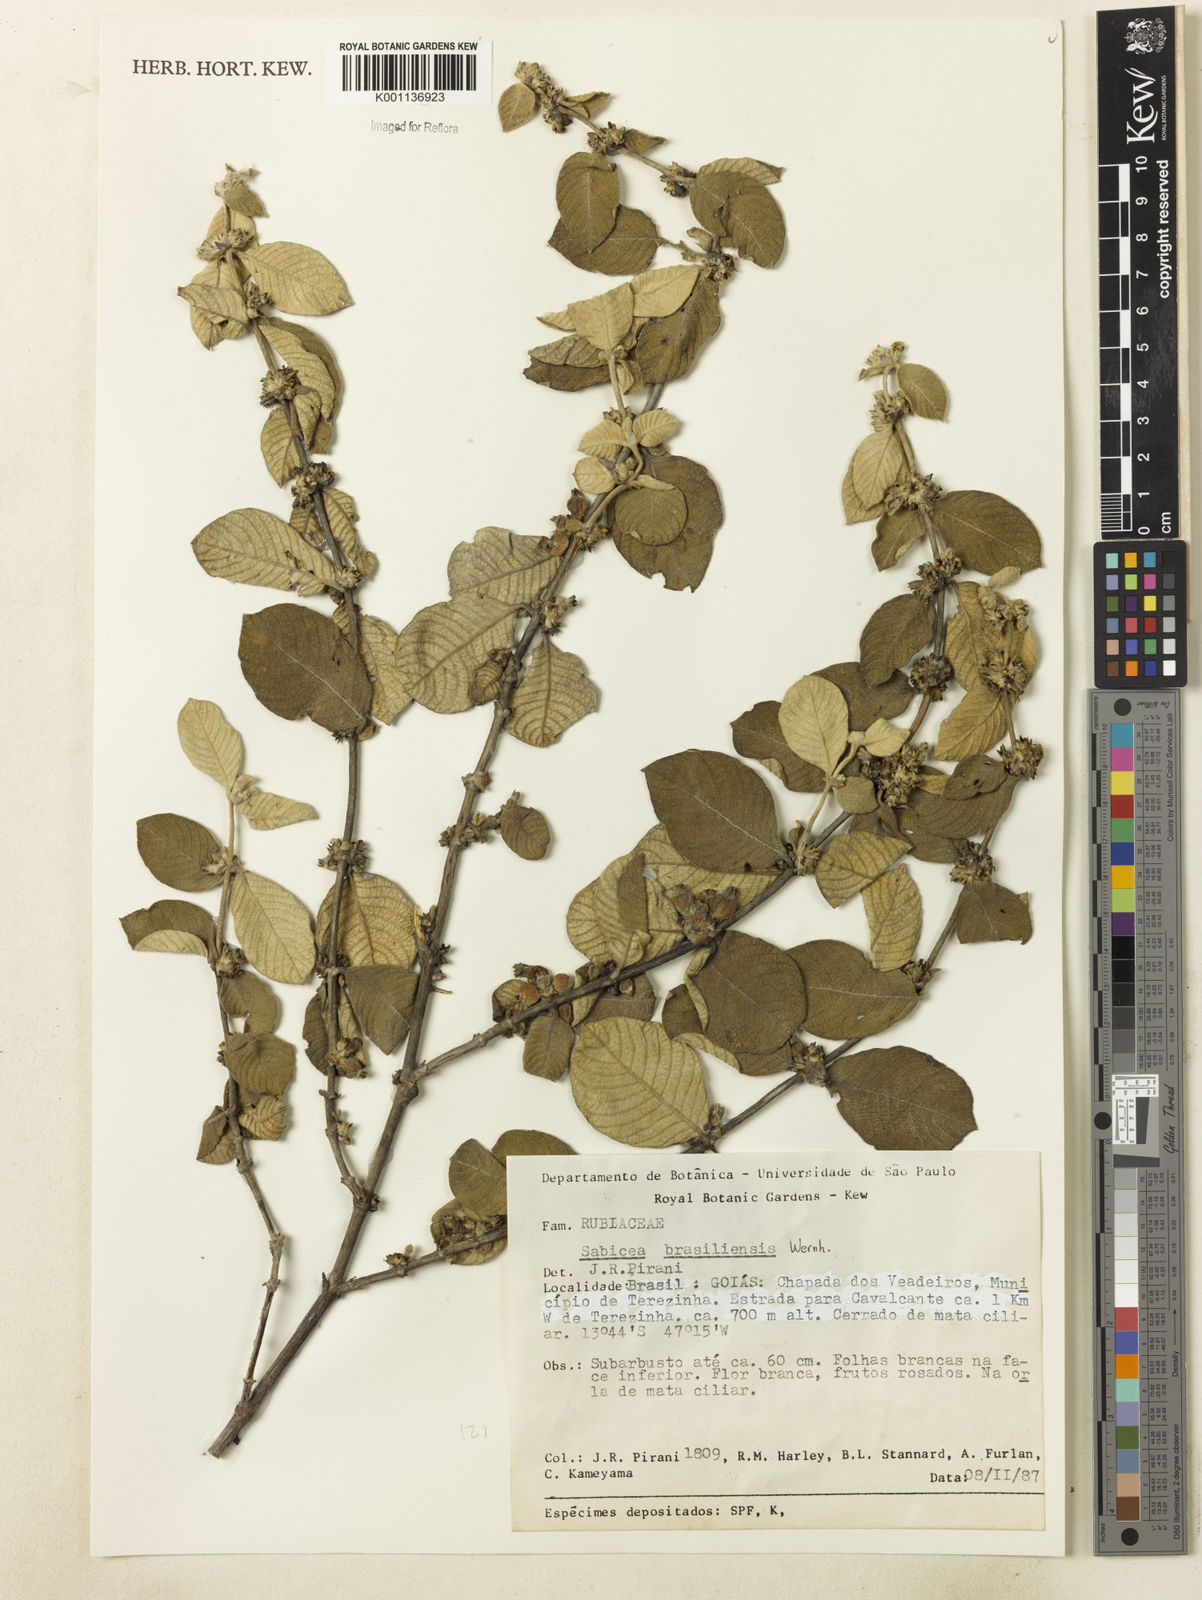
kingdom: Plantae
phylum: Tracheophyta
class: Magnoliopsida
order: Gentianales
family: Rubiaceae
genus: Sabicea
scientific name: Sabicea brasiliensis
